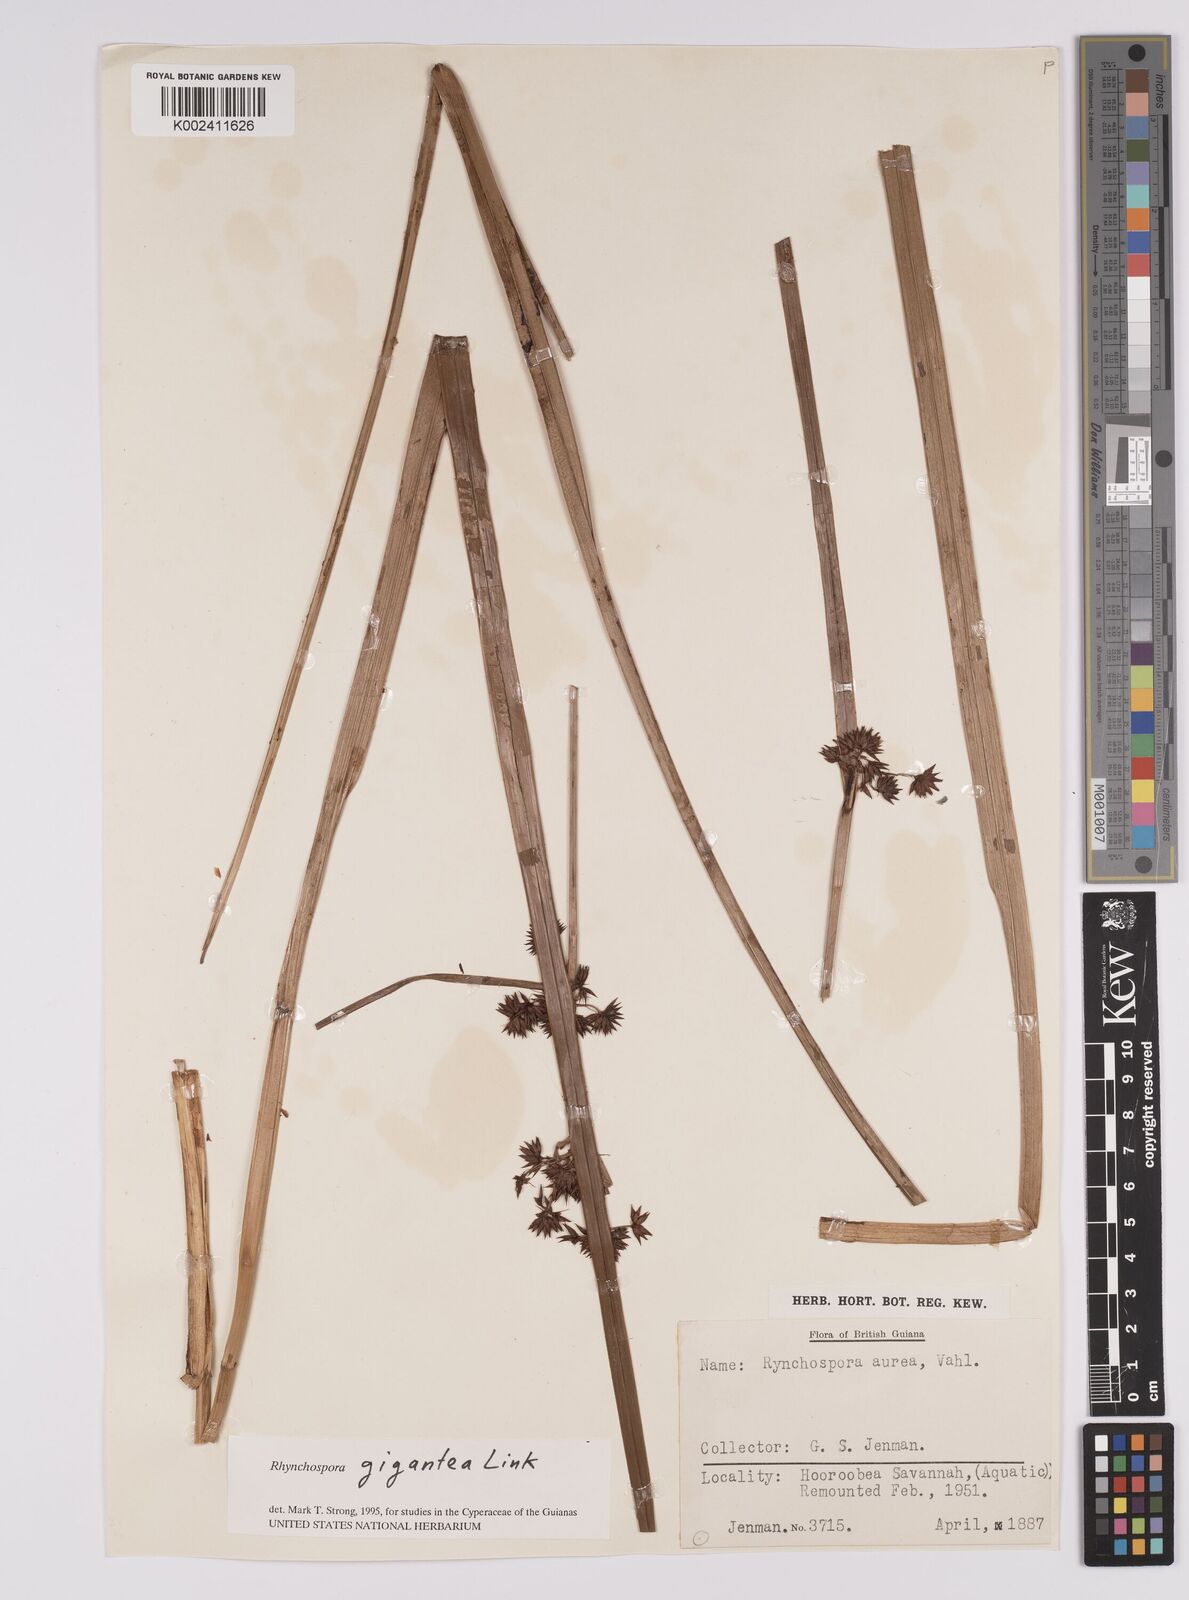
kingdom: Plantae
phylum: Tracheophyta
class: Liliopsida
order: Poales
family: Cyperaceae
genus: Rhynchospora
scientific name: Rhynchospora gigantea
